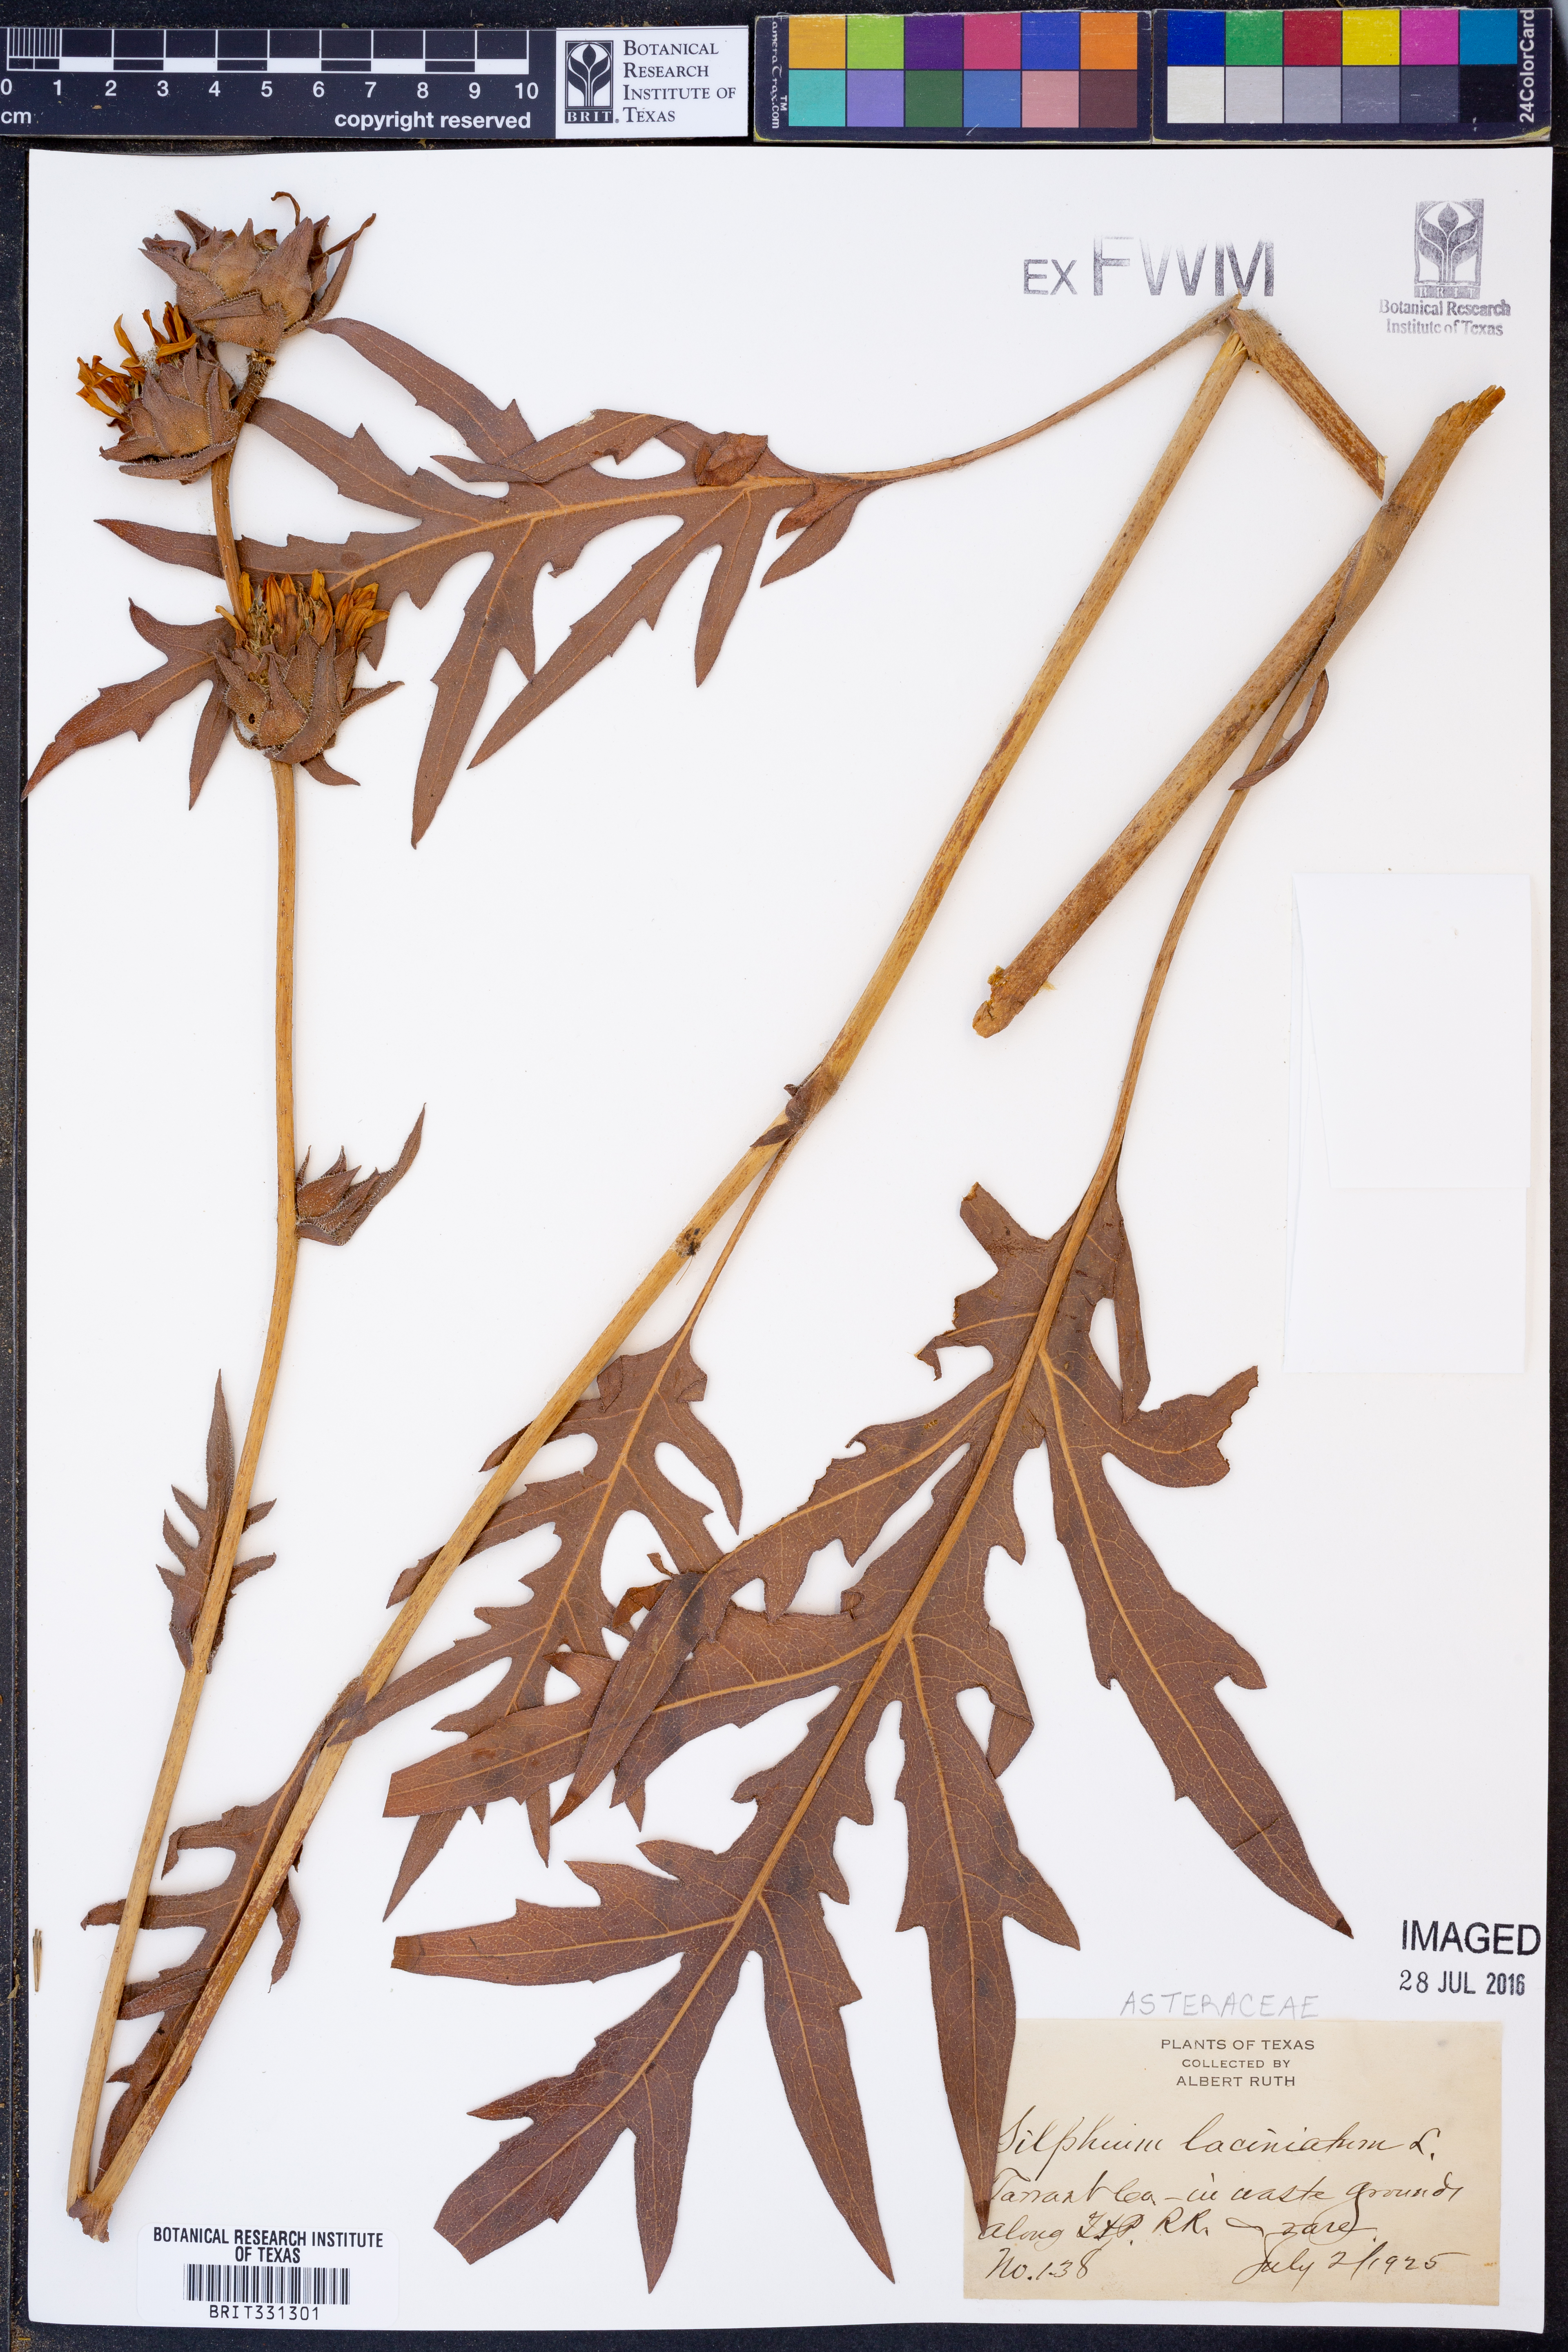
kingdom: Plantae
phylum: Tracheophyta
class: Magnoliopsida
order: Asterales
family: Asteraceae
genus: Silphium
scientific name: Silphium laciniatum
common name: Polarplant
